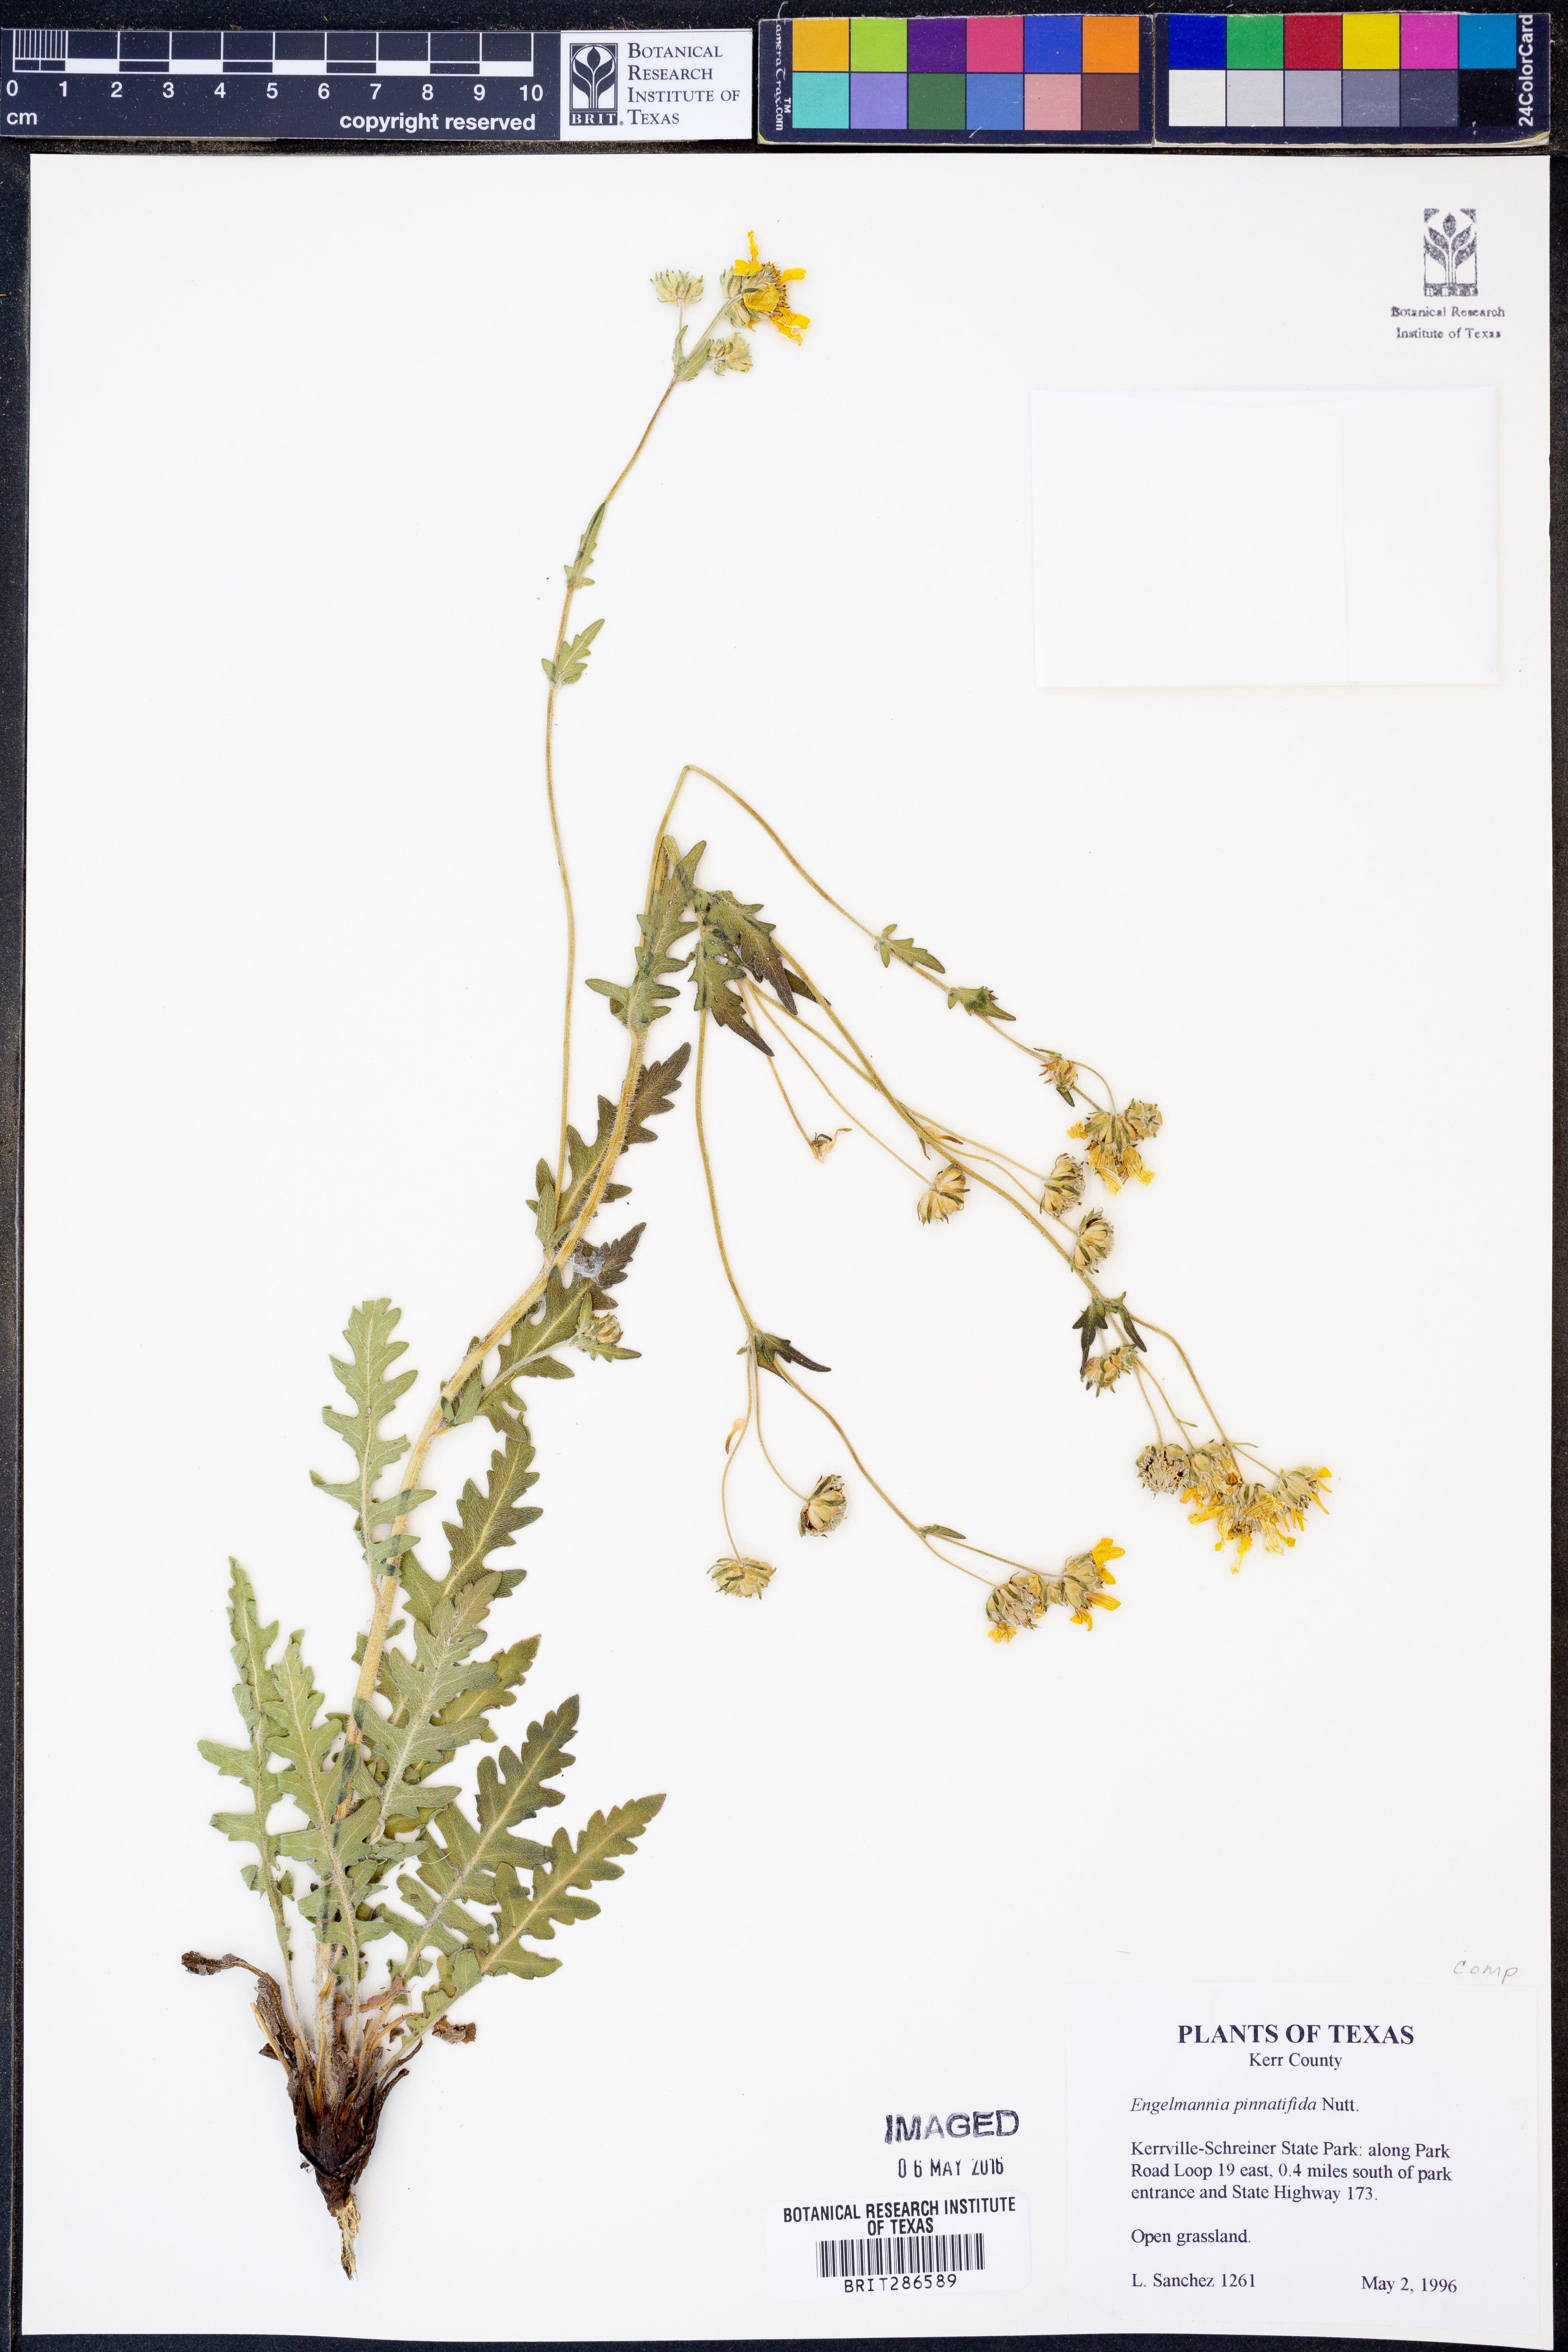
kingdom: Plantae
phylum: Tracheophyta
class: Magnoliopsida
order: Asterales
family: Asteraceae
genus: Engelmannia
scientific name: Engelmannia peristenia
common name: Engelmann's daisy
